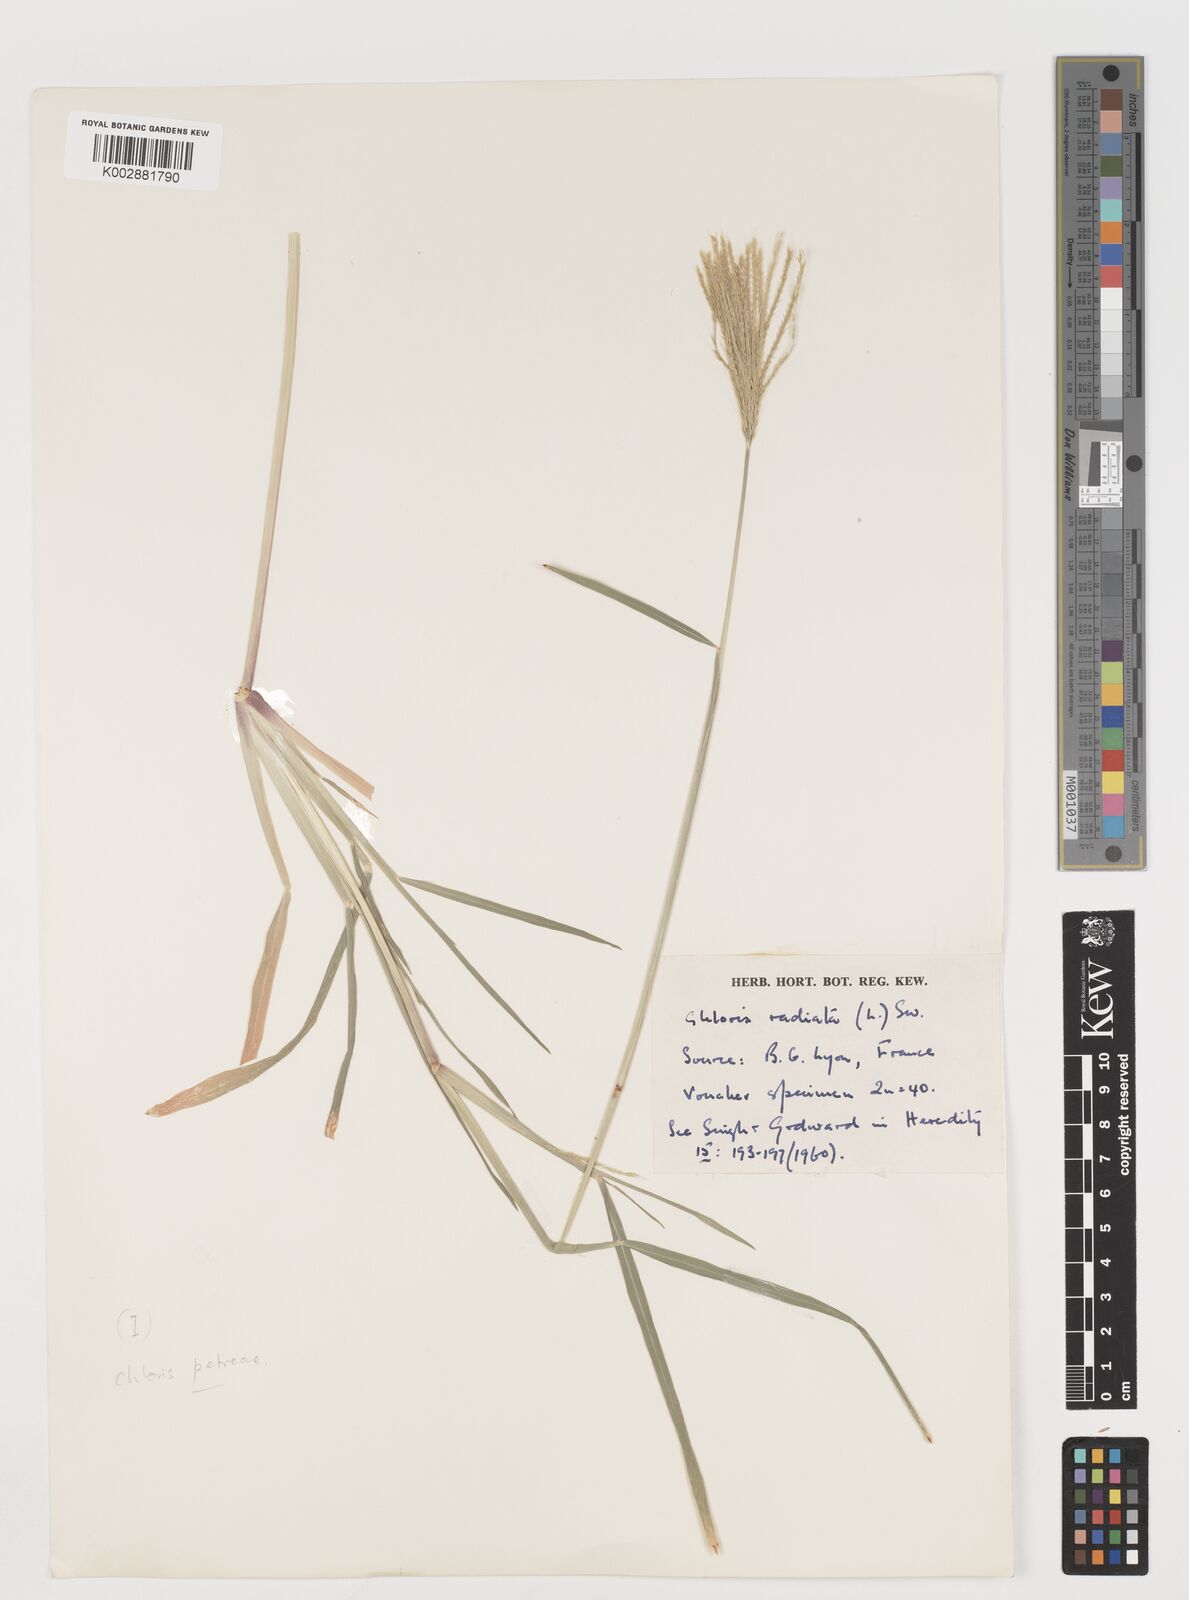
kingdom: Plantae
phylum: Tracheophyta
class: Liliopsida
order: Poales
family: Poaceae
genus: Chloris
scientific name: Chloris radiata
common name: Radiate fingergrass
